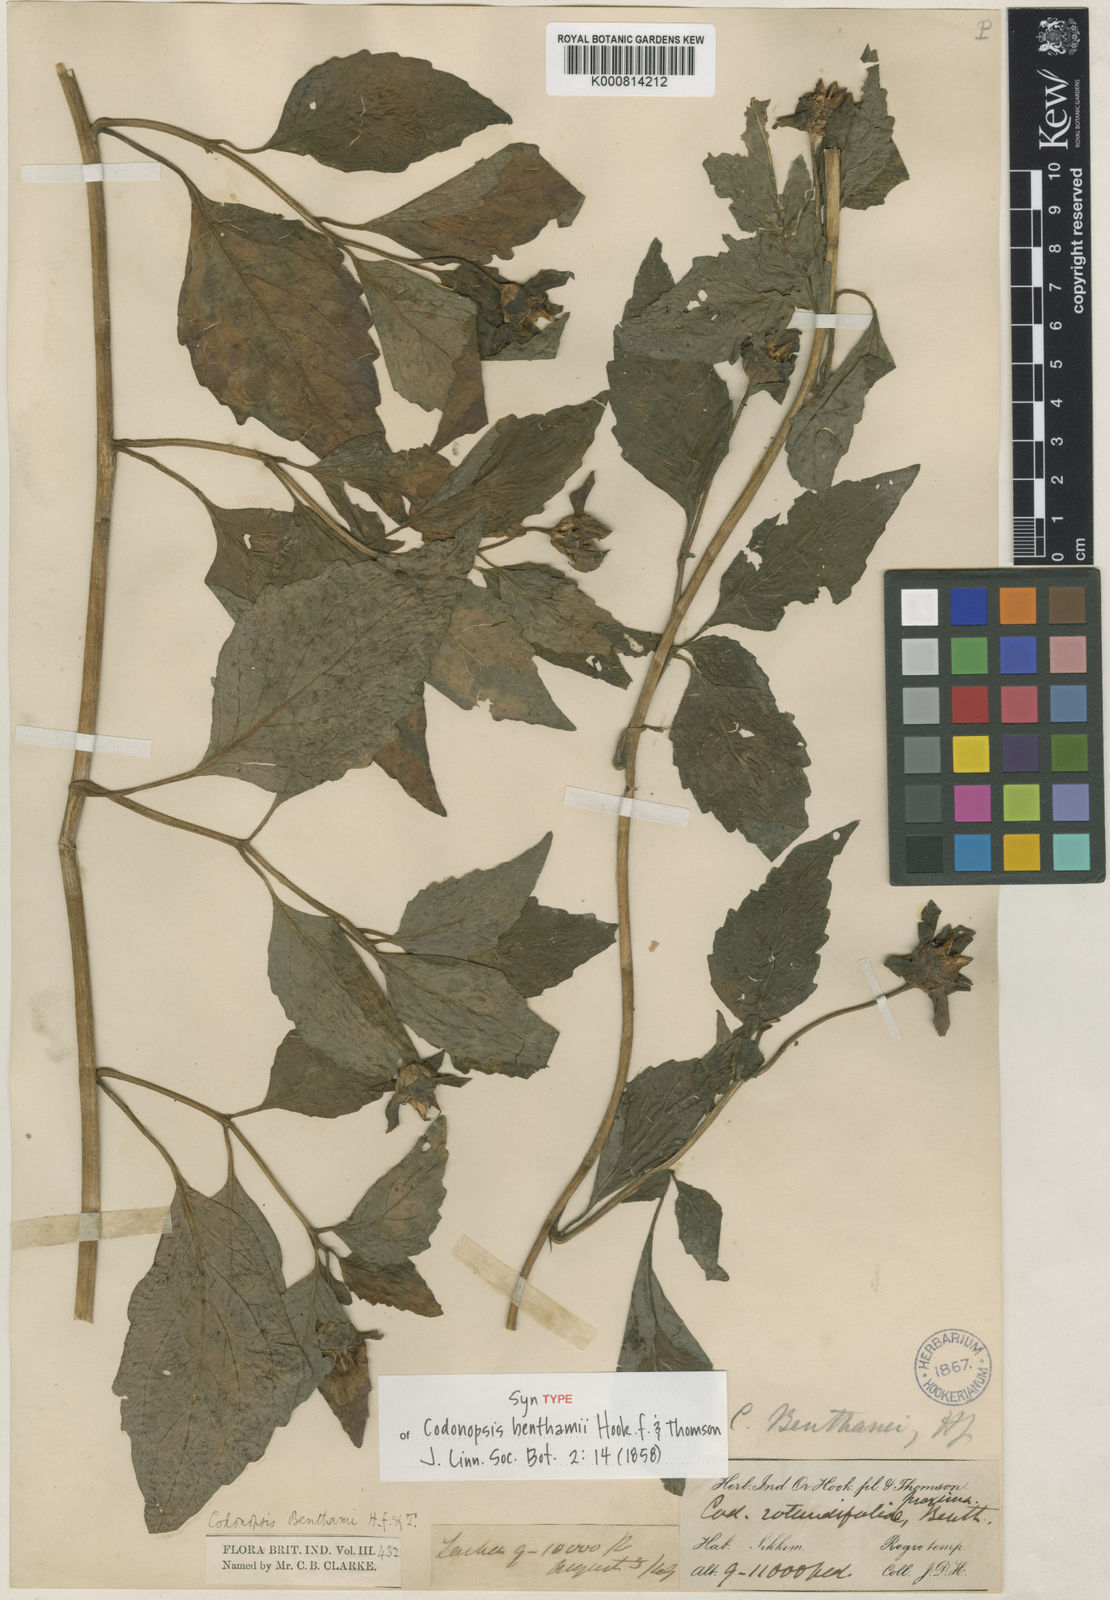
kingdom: Plantae
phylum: Tracheophyta
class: Magnoliopsida
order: Asterales
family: Campanulaceae
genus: Codonopsis
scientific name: Codonopsis benthamii
